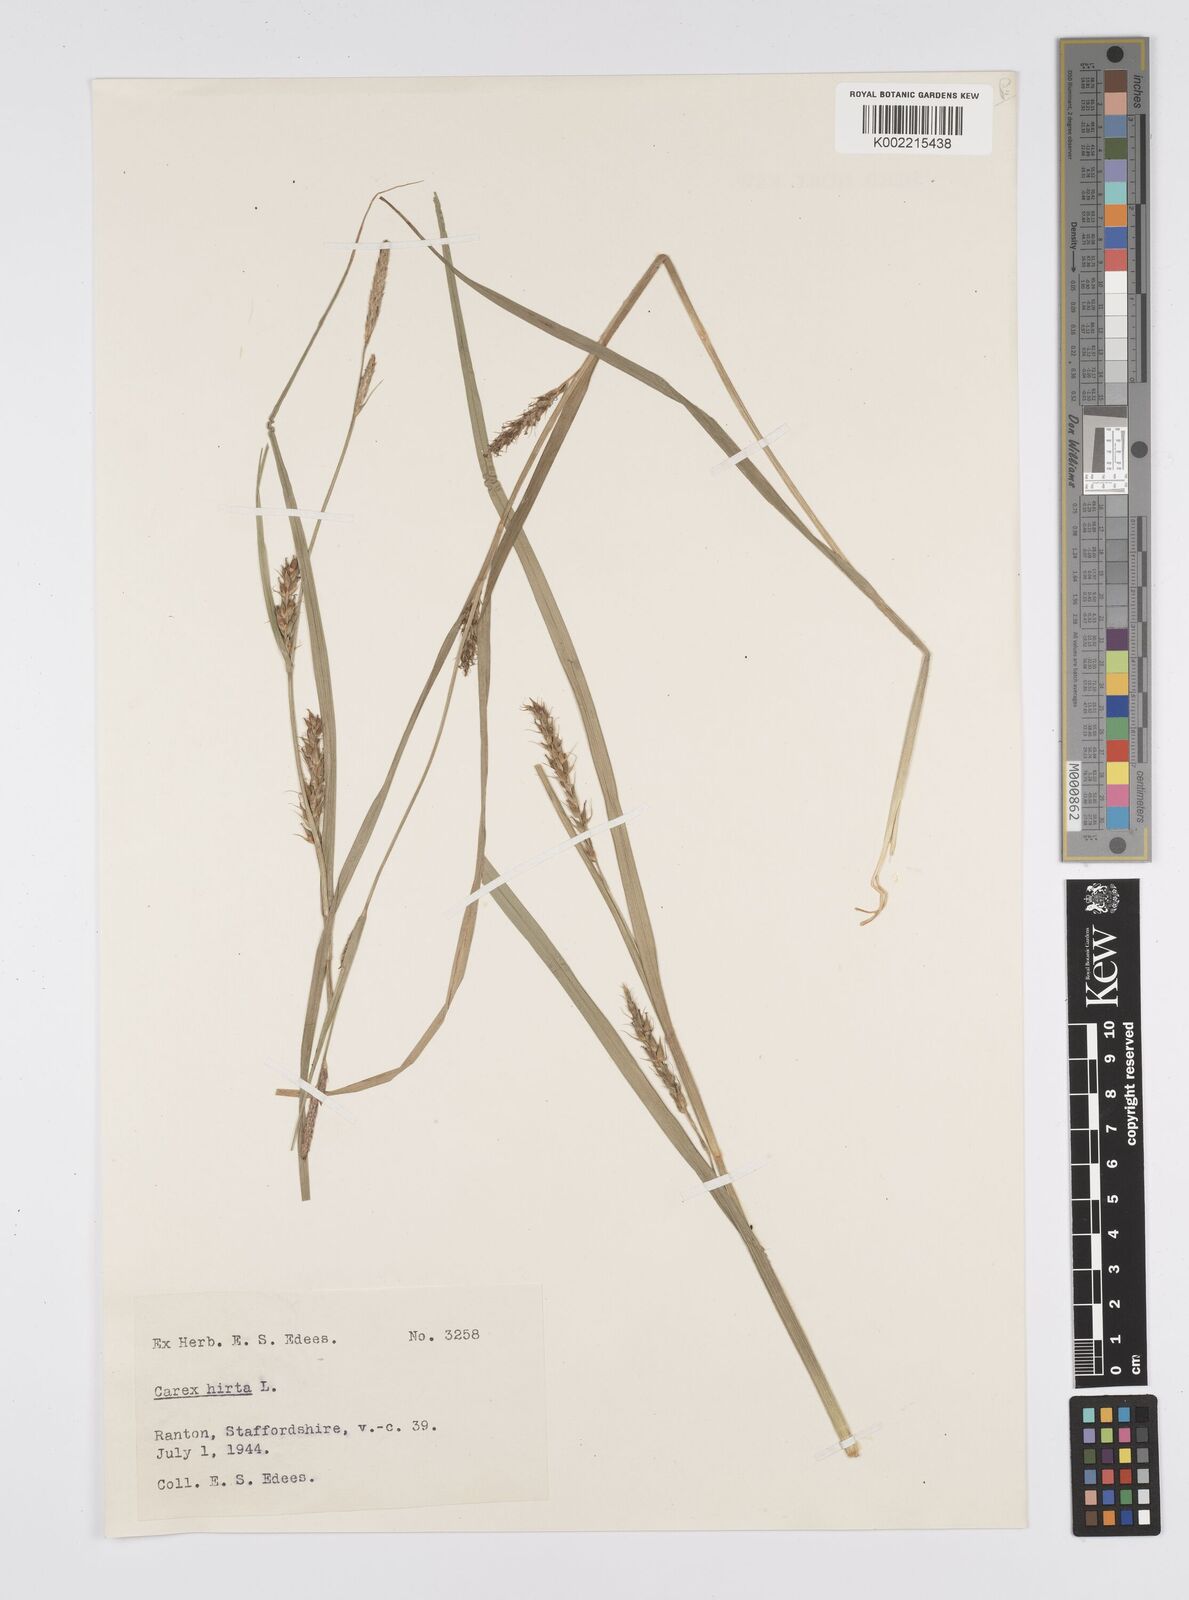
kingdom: Plantae
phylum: Tracheophyta
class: Liliopsida
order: Poales
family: Cyperaceae
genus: Carex
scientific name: Carex hirta
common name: Hairy sedge
